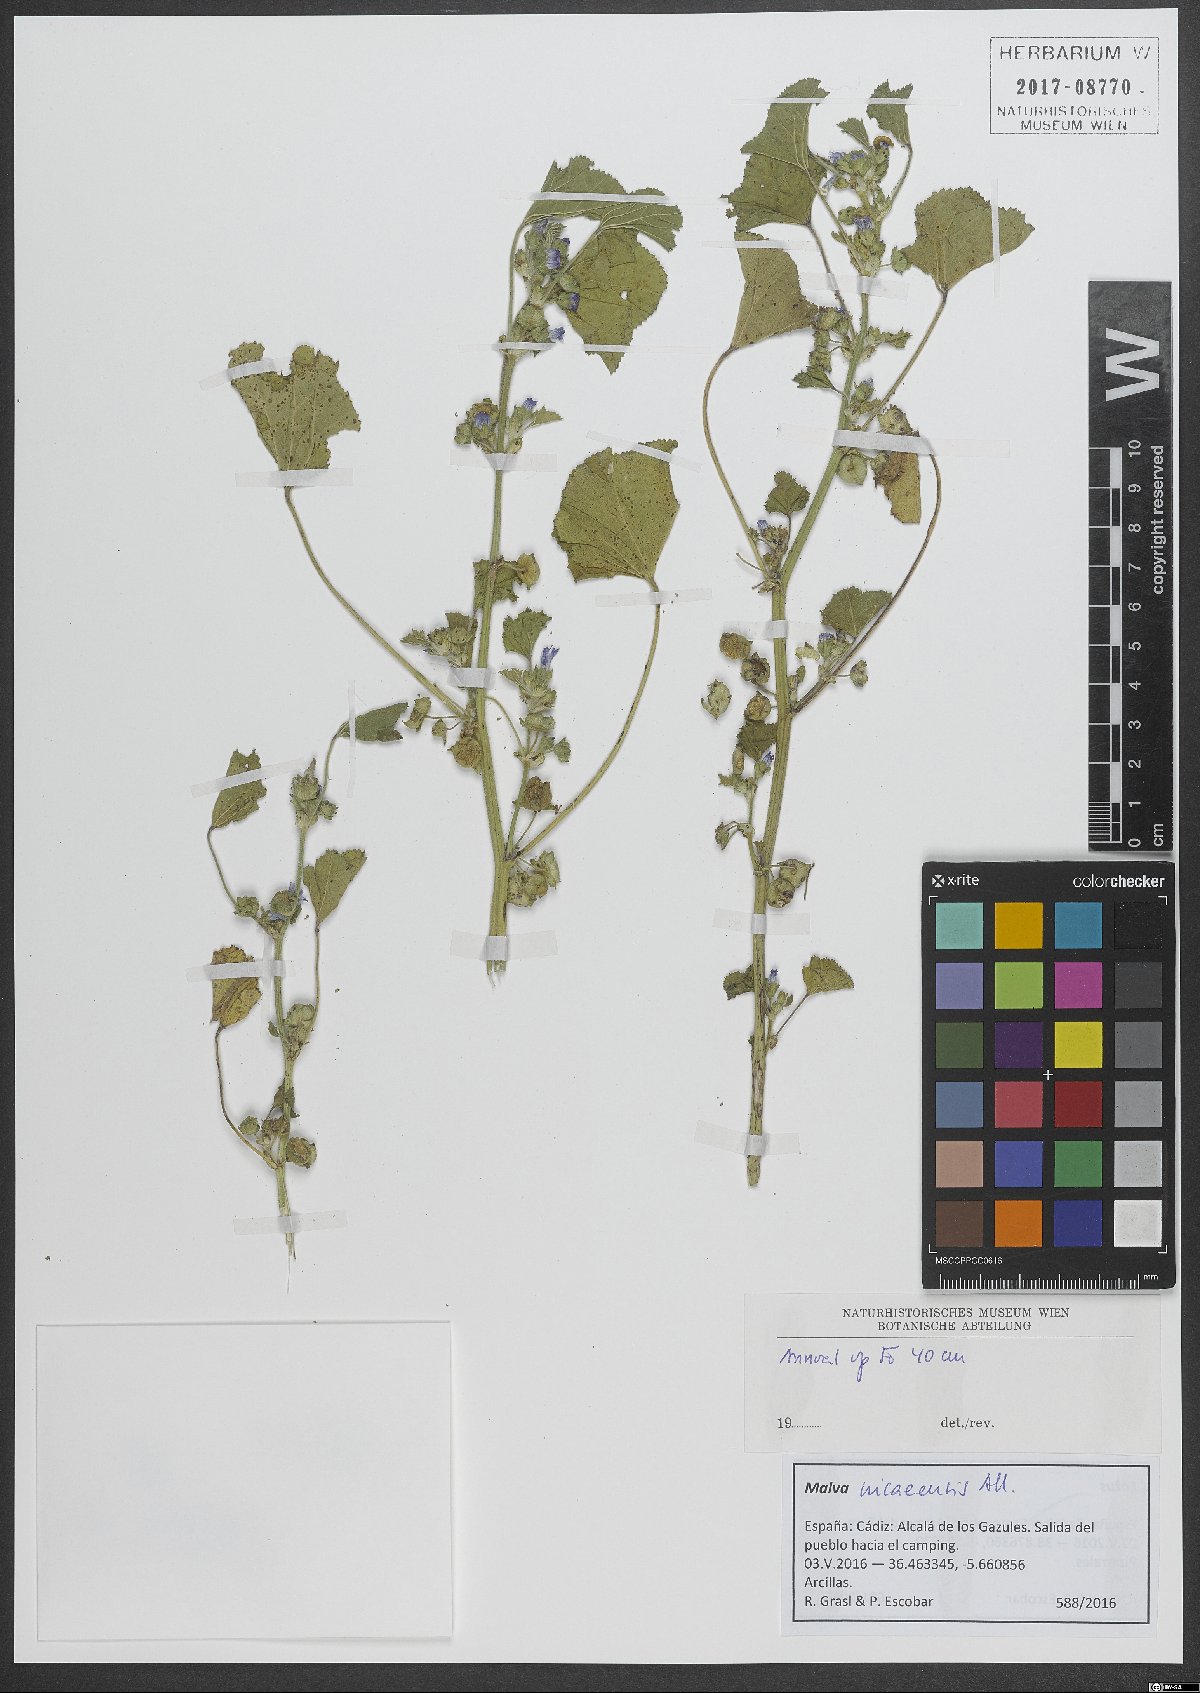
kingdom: Plantae
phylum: Tracheophyta
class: Magnoliopsida
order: Malvales
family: Malvaceae
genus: Malva
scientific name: Malva nicaeensis
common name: French mallow
